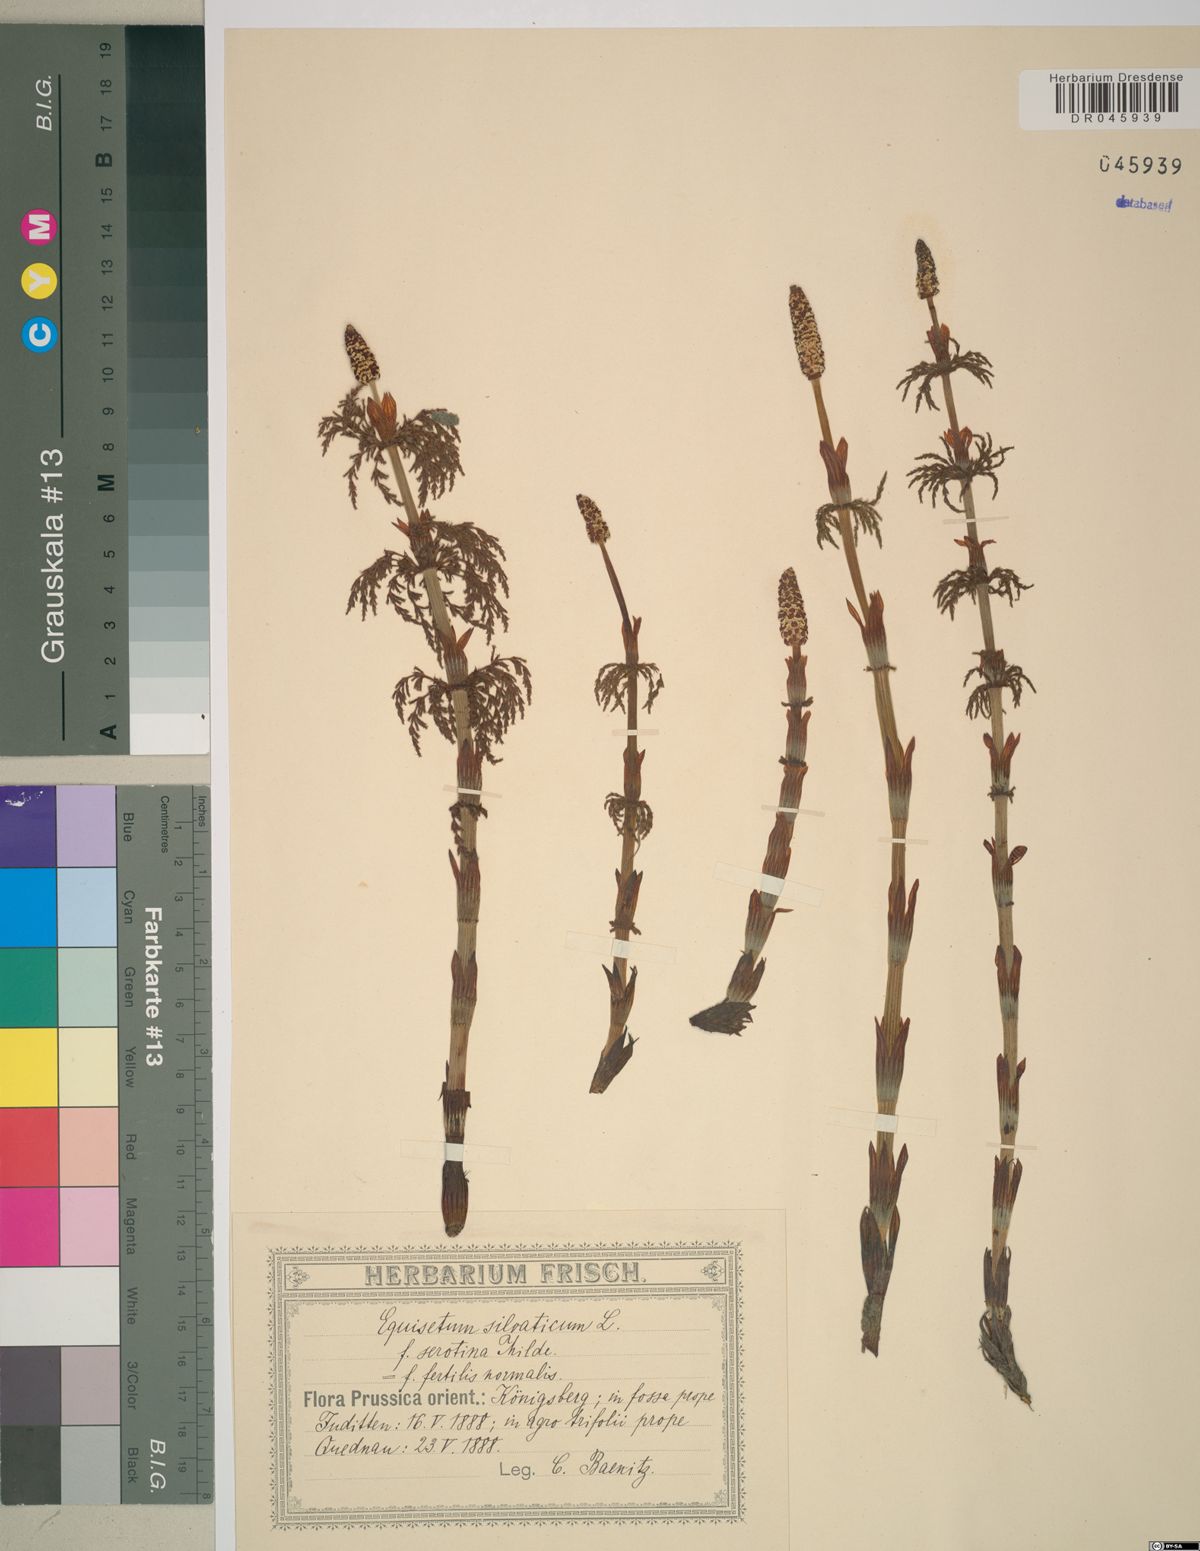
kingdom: Plantae
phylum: Tracheophyta
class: Polypodiopsida
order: Equisetales
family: Equisetaceae
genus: Equisetum
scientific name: Equisetum sylvaticum
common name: Wood horsetail
